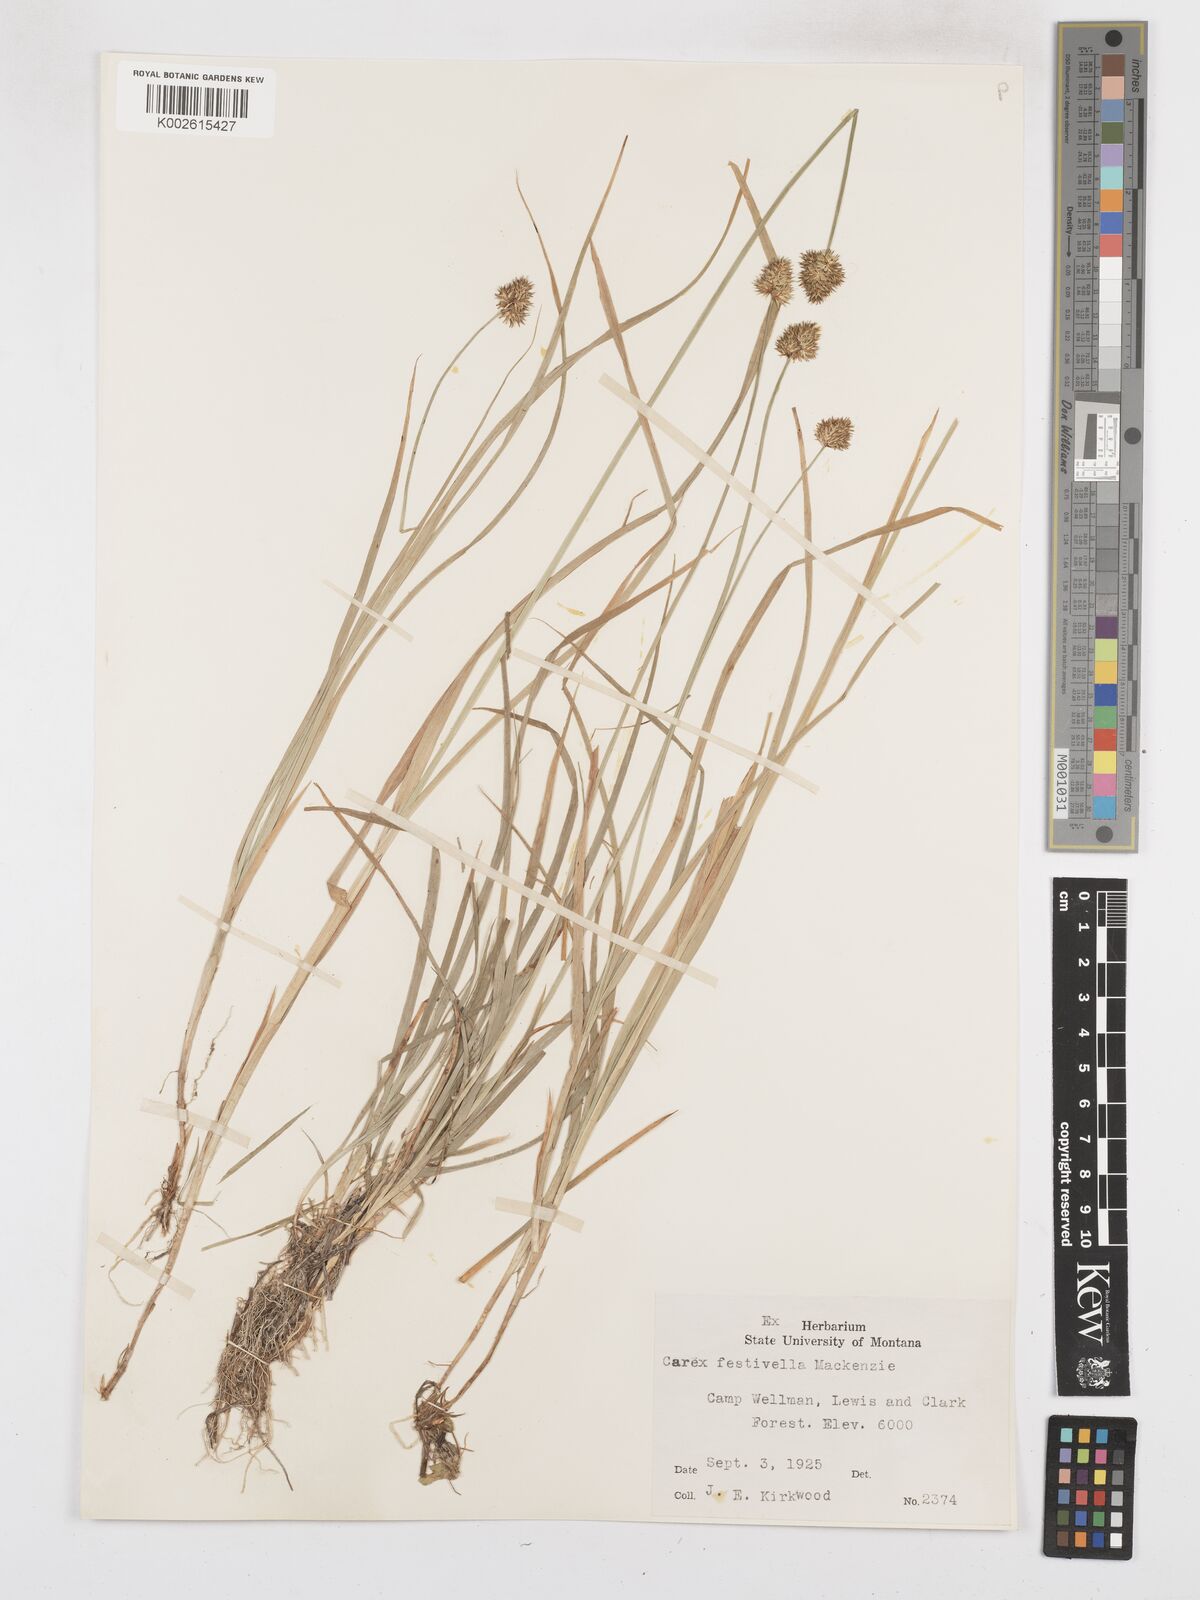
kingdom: Plantae
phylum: Tracheophyta
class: Liliopsida
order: Poales
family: Cyperaceae
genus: Carex
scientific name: Carex microptera
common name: Oval-headed sedge
